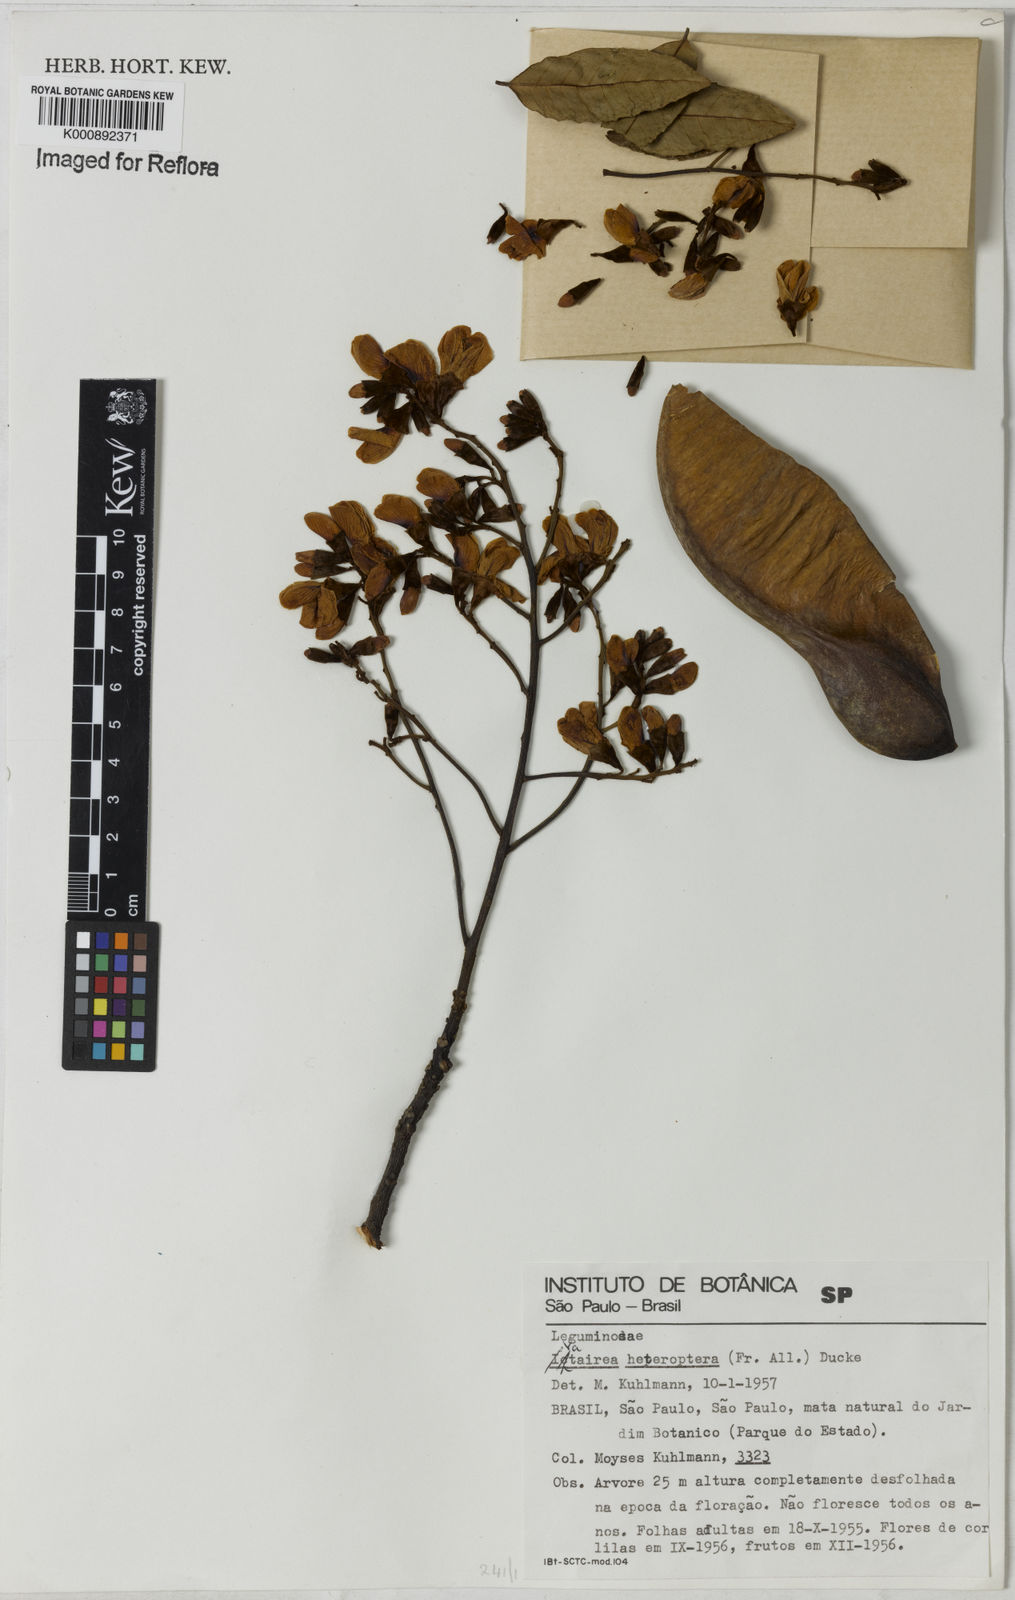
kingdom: Plantae
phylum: Tracheophyta
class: Magnoliopsida
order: Fabales
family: Fabaceae
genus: Vatairea
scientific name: Vatairea
